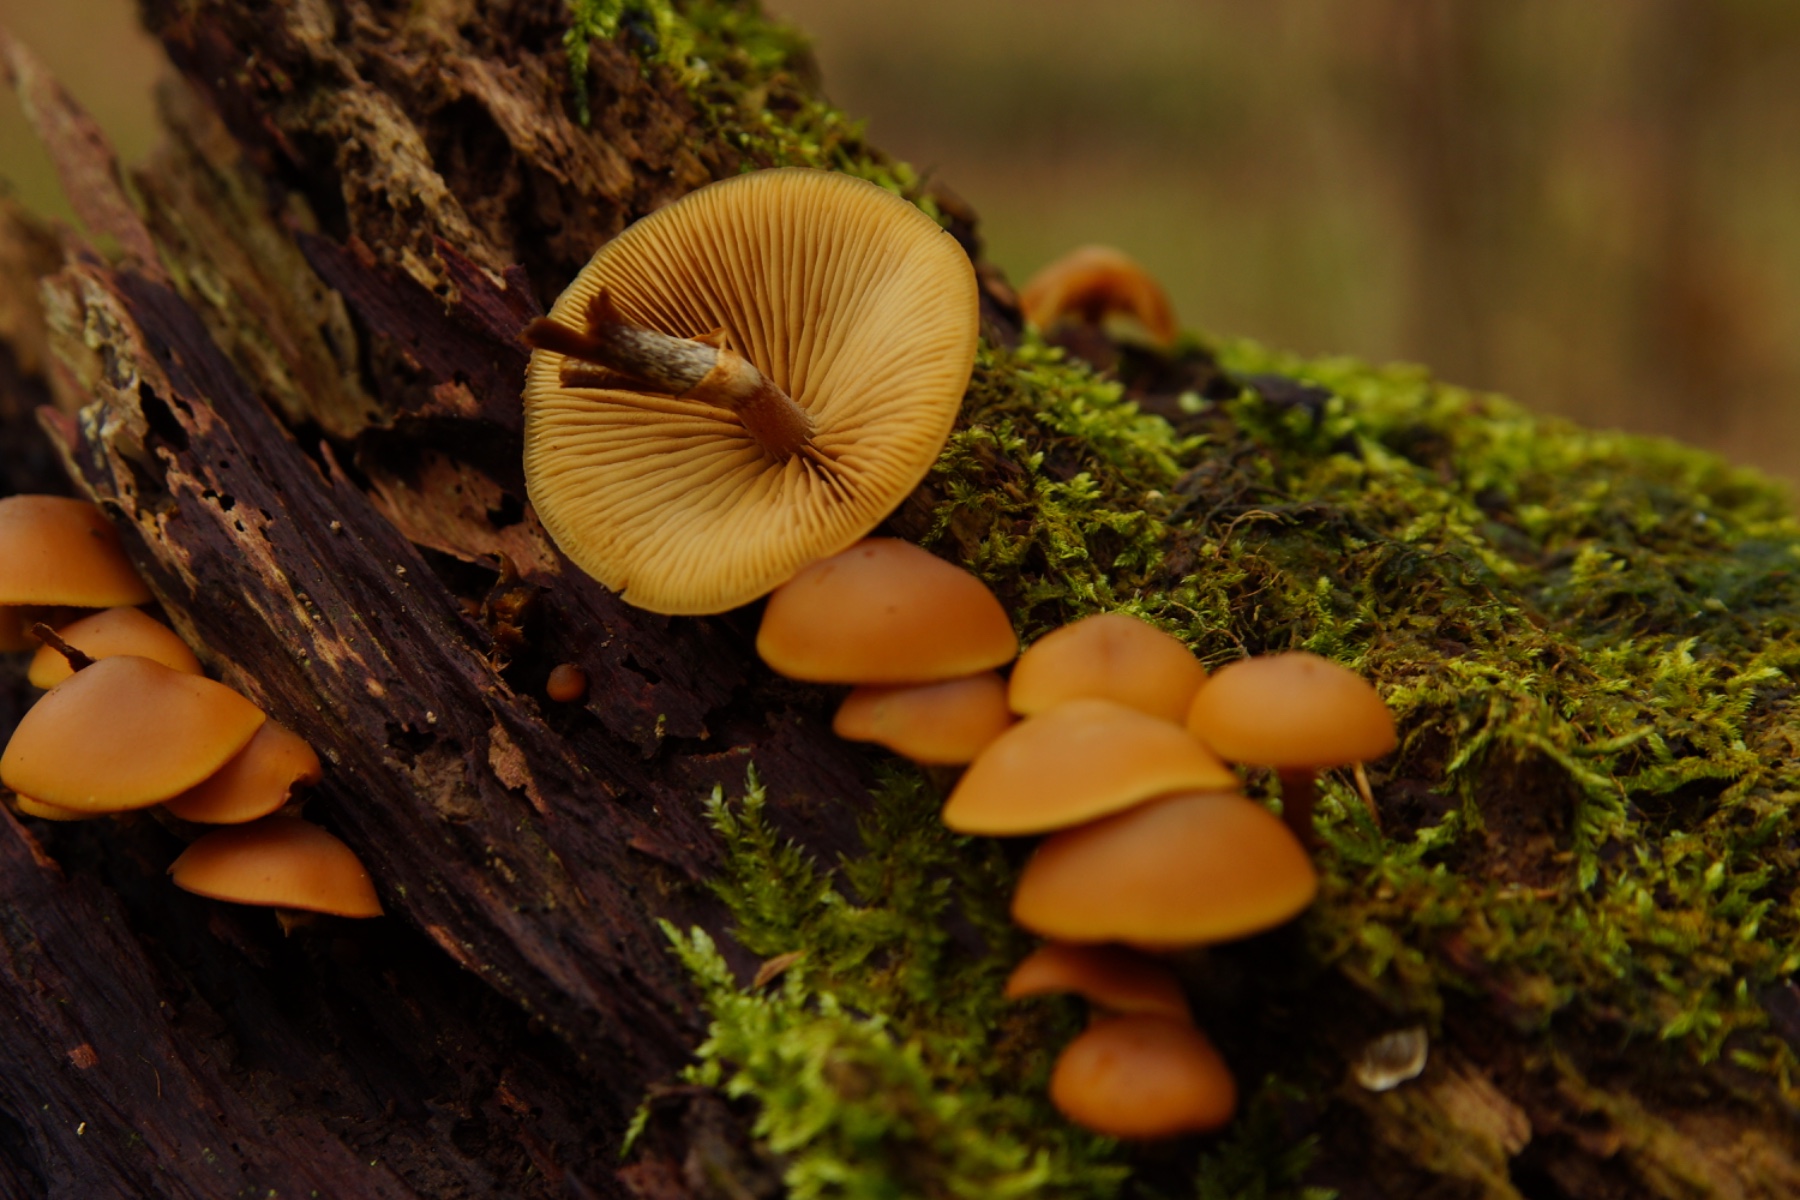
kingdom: Fungi
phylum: Basidiomycota
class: Agaricomycetes
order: Agaricales
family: Hymenogastraceae
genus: Galerina
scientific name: Galerina marginata
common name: randbæltet hjelmhat
